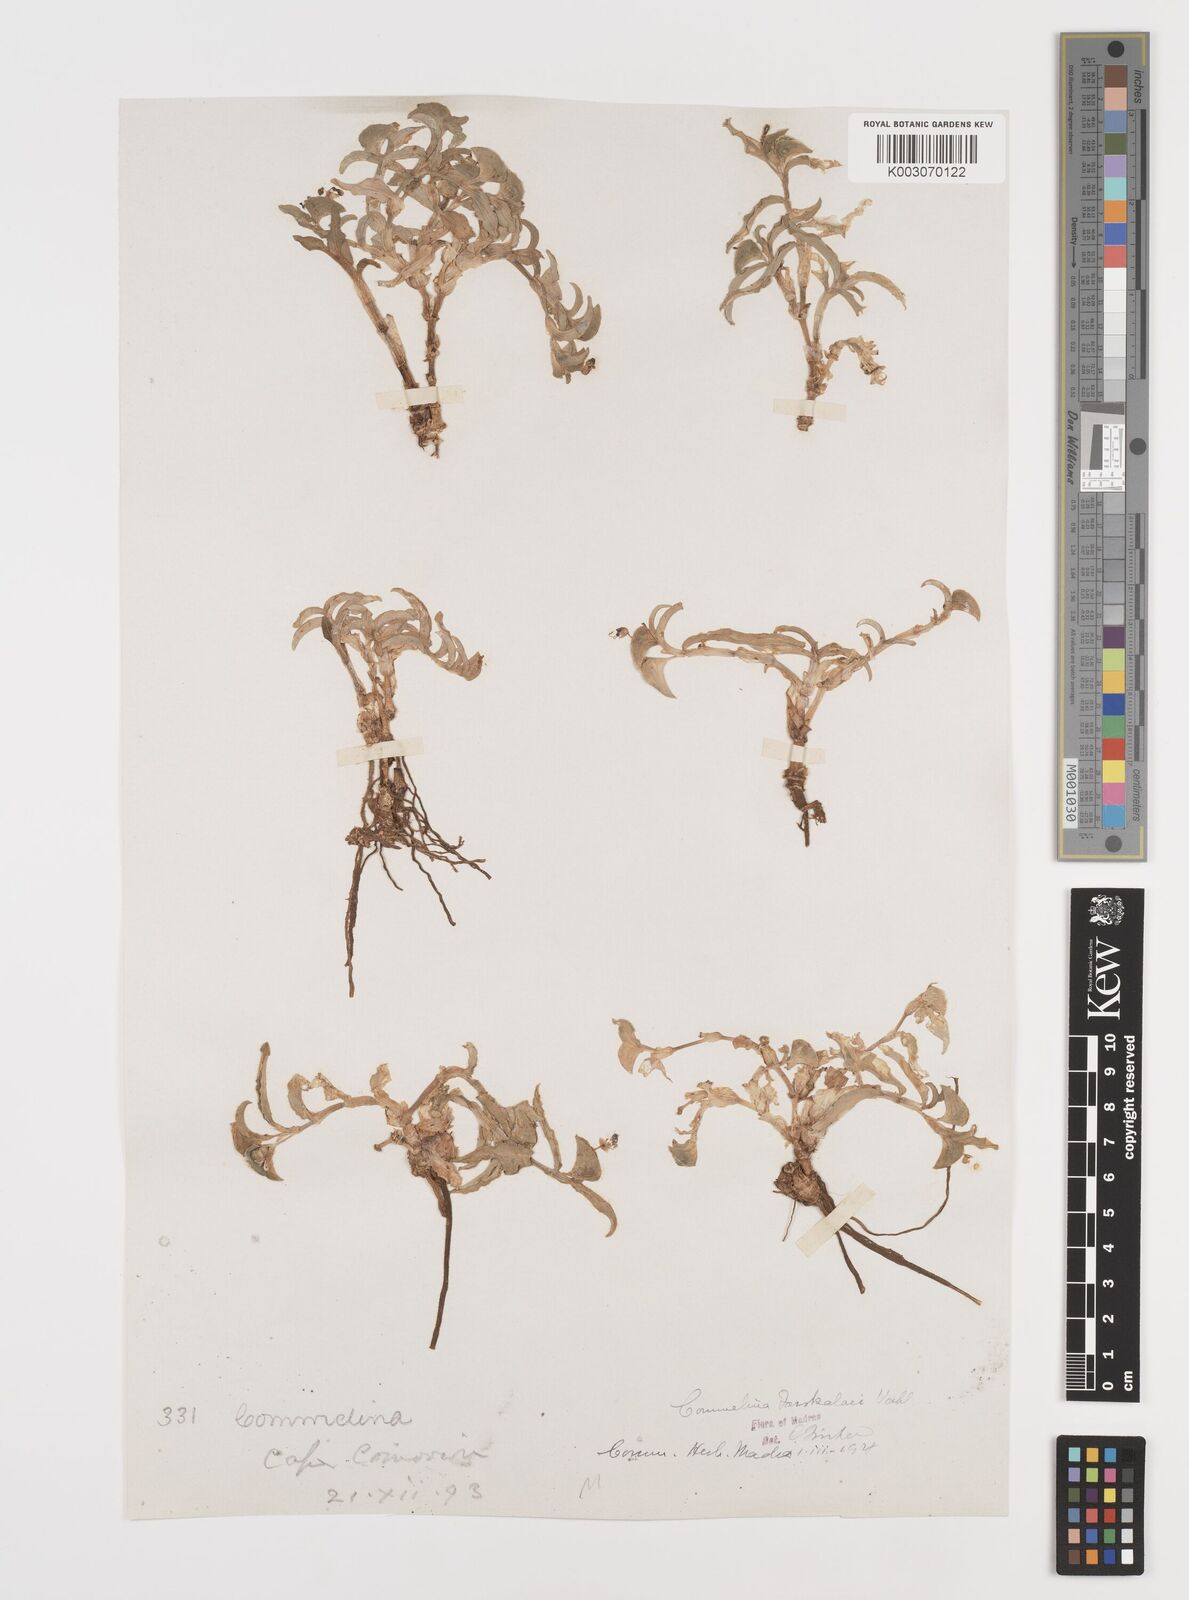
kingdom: Plantae
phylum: Tracheophyta
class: Liliopsida
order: Commelinales
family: Commelinaceae
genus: Commelina
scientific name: Commelina forskaolii
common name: Rat's ear
